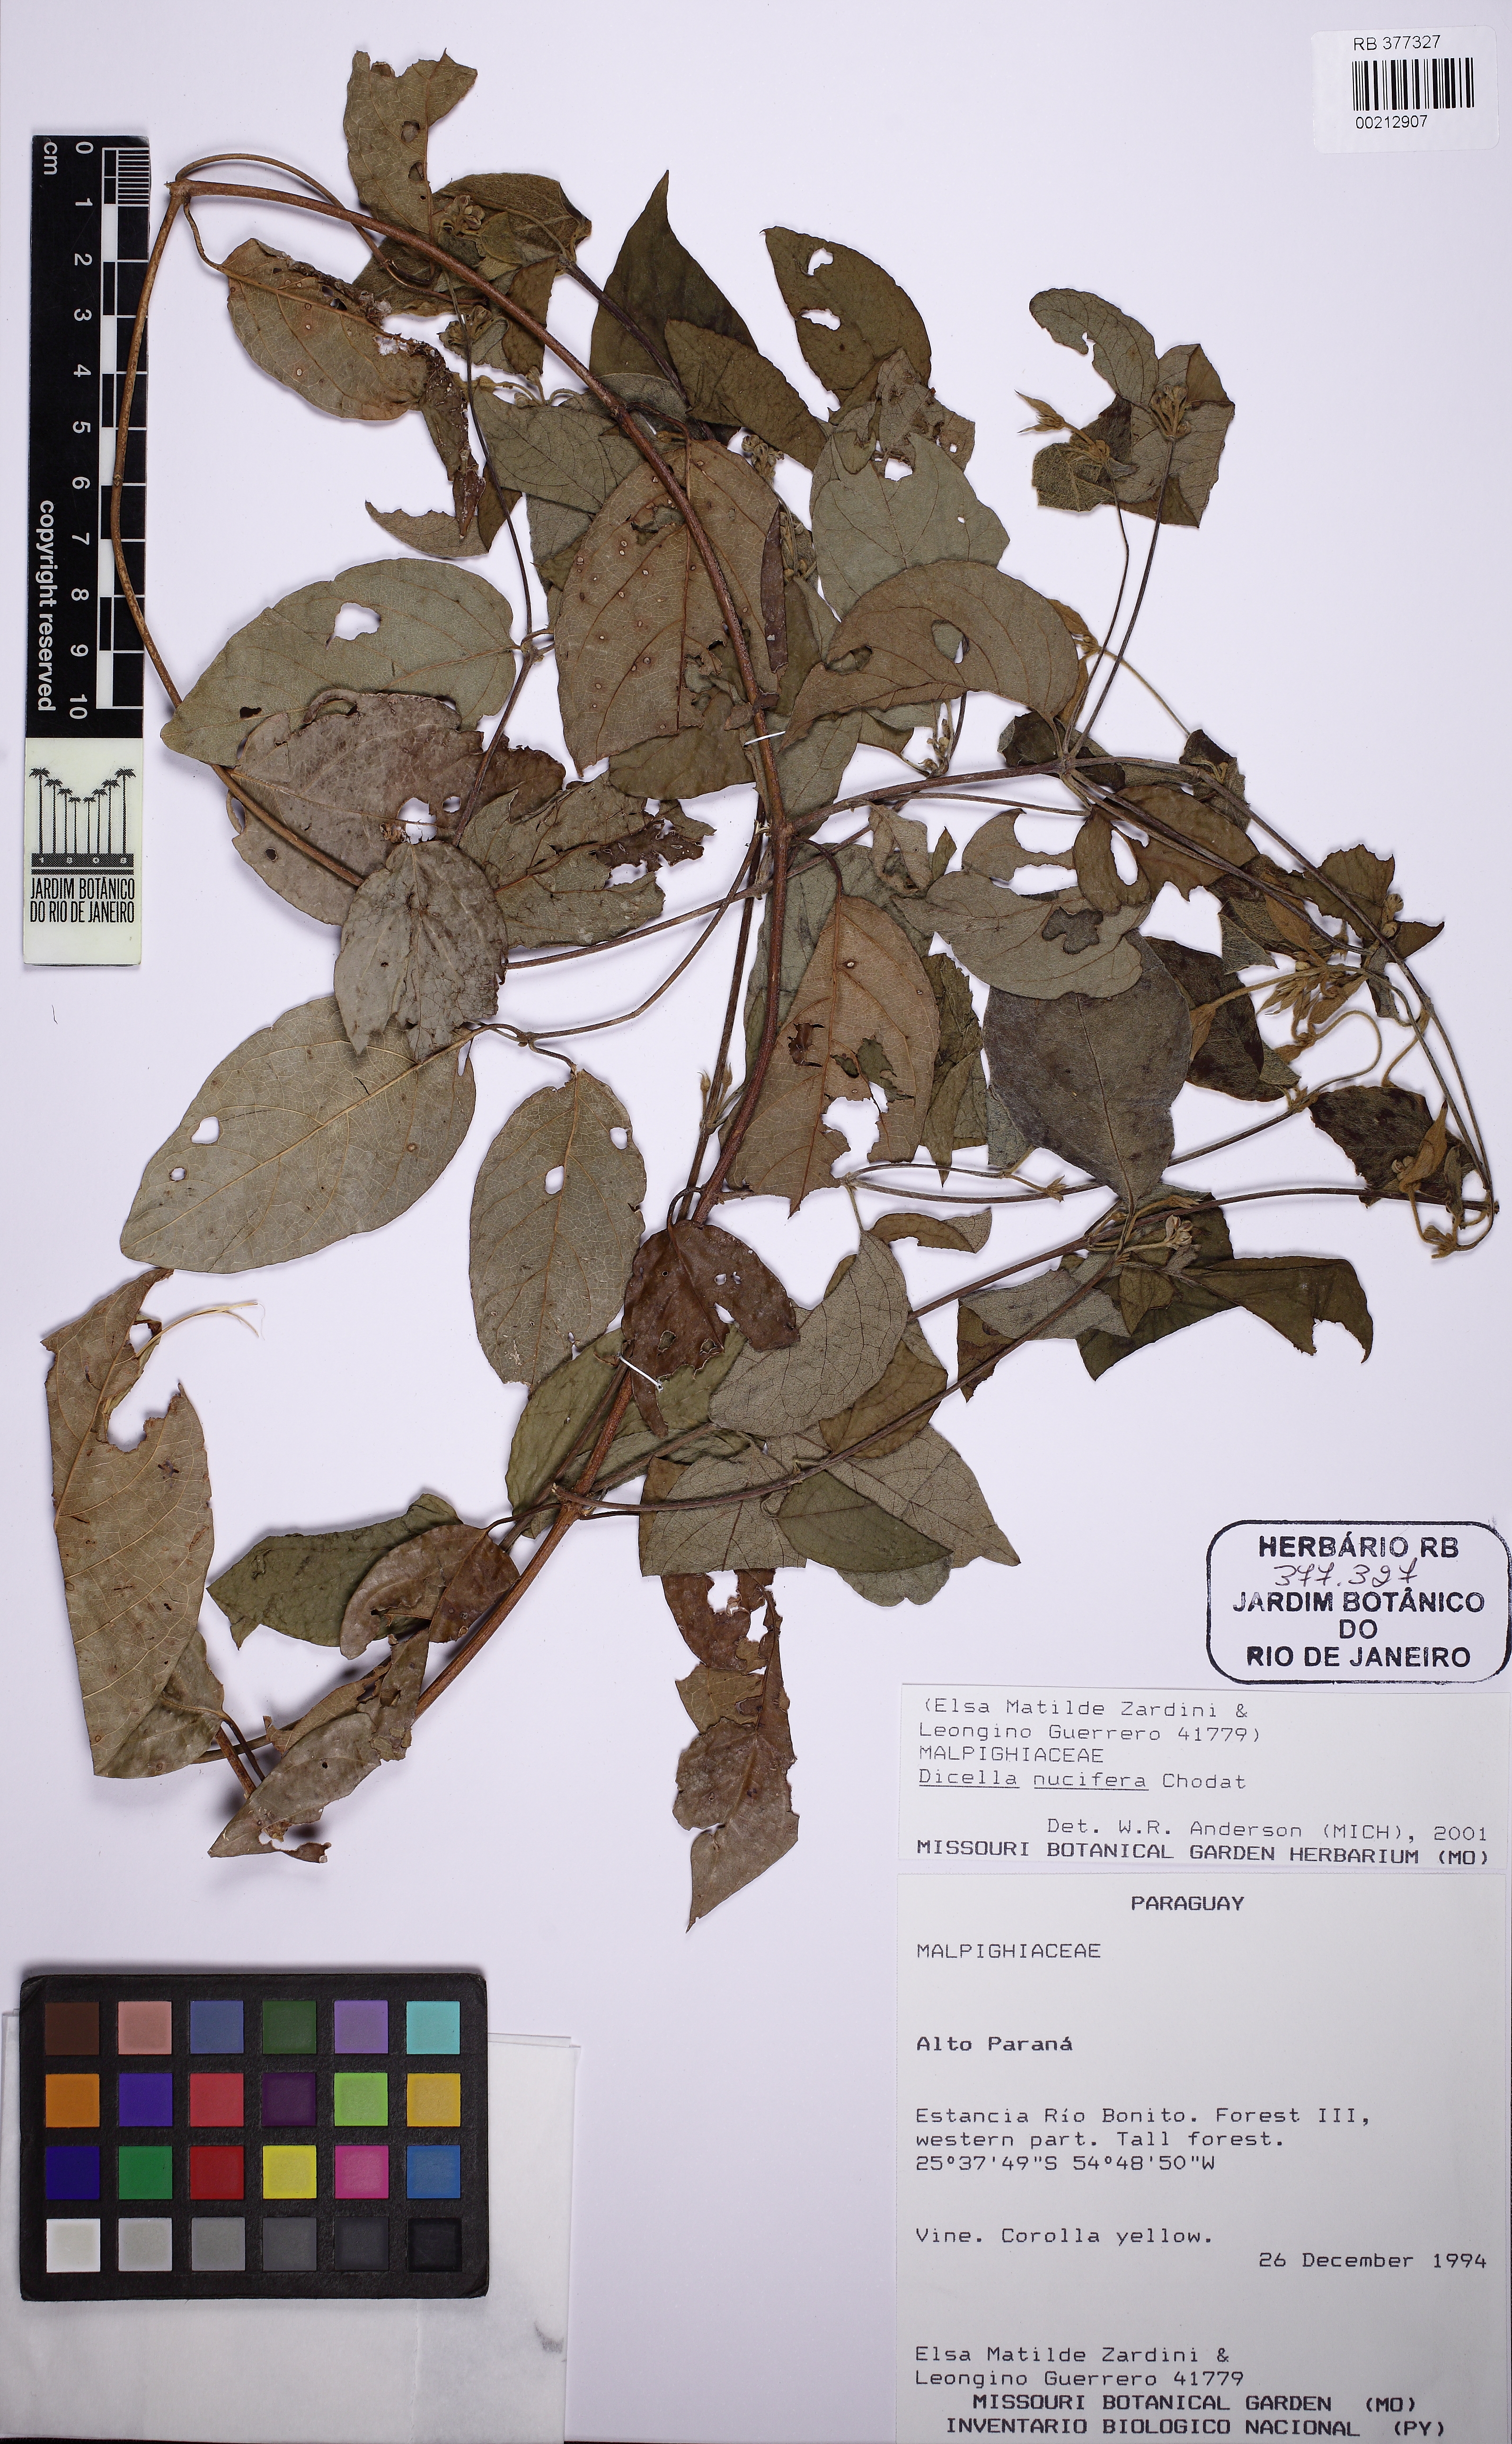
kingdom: Plantae
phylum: Tracheophyta
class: Magnoliopsida
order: Malpighiales
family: Malpighiaceae
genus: Dicella
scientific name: Dicella nucifera
